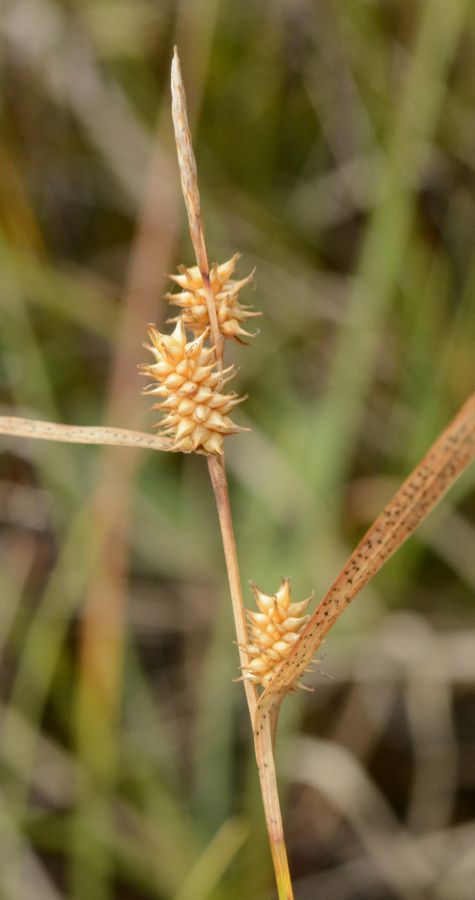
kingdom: Plantae
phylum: Tracheophyta
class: Liliopsida
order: Poales
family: Cyperaceae
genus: Carex
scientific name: Carex lepidocarpa
